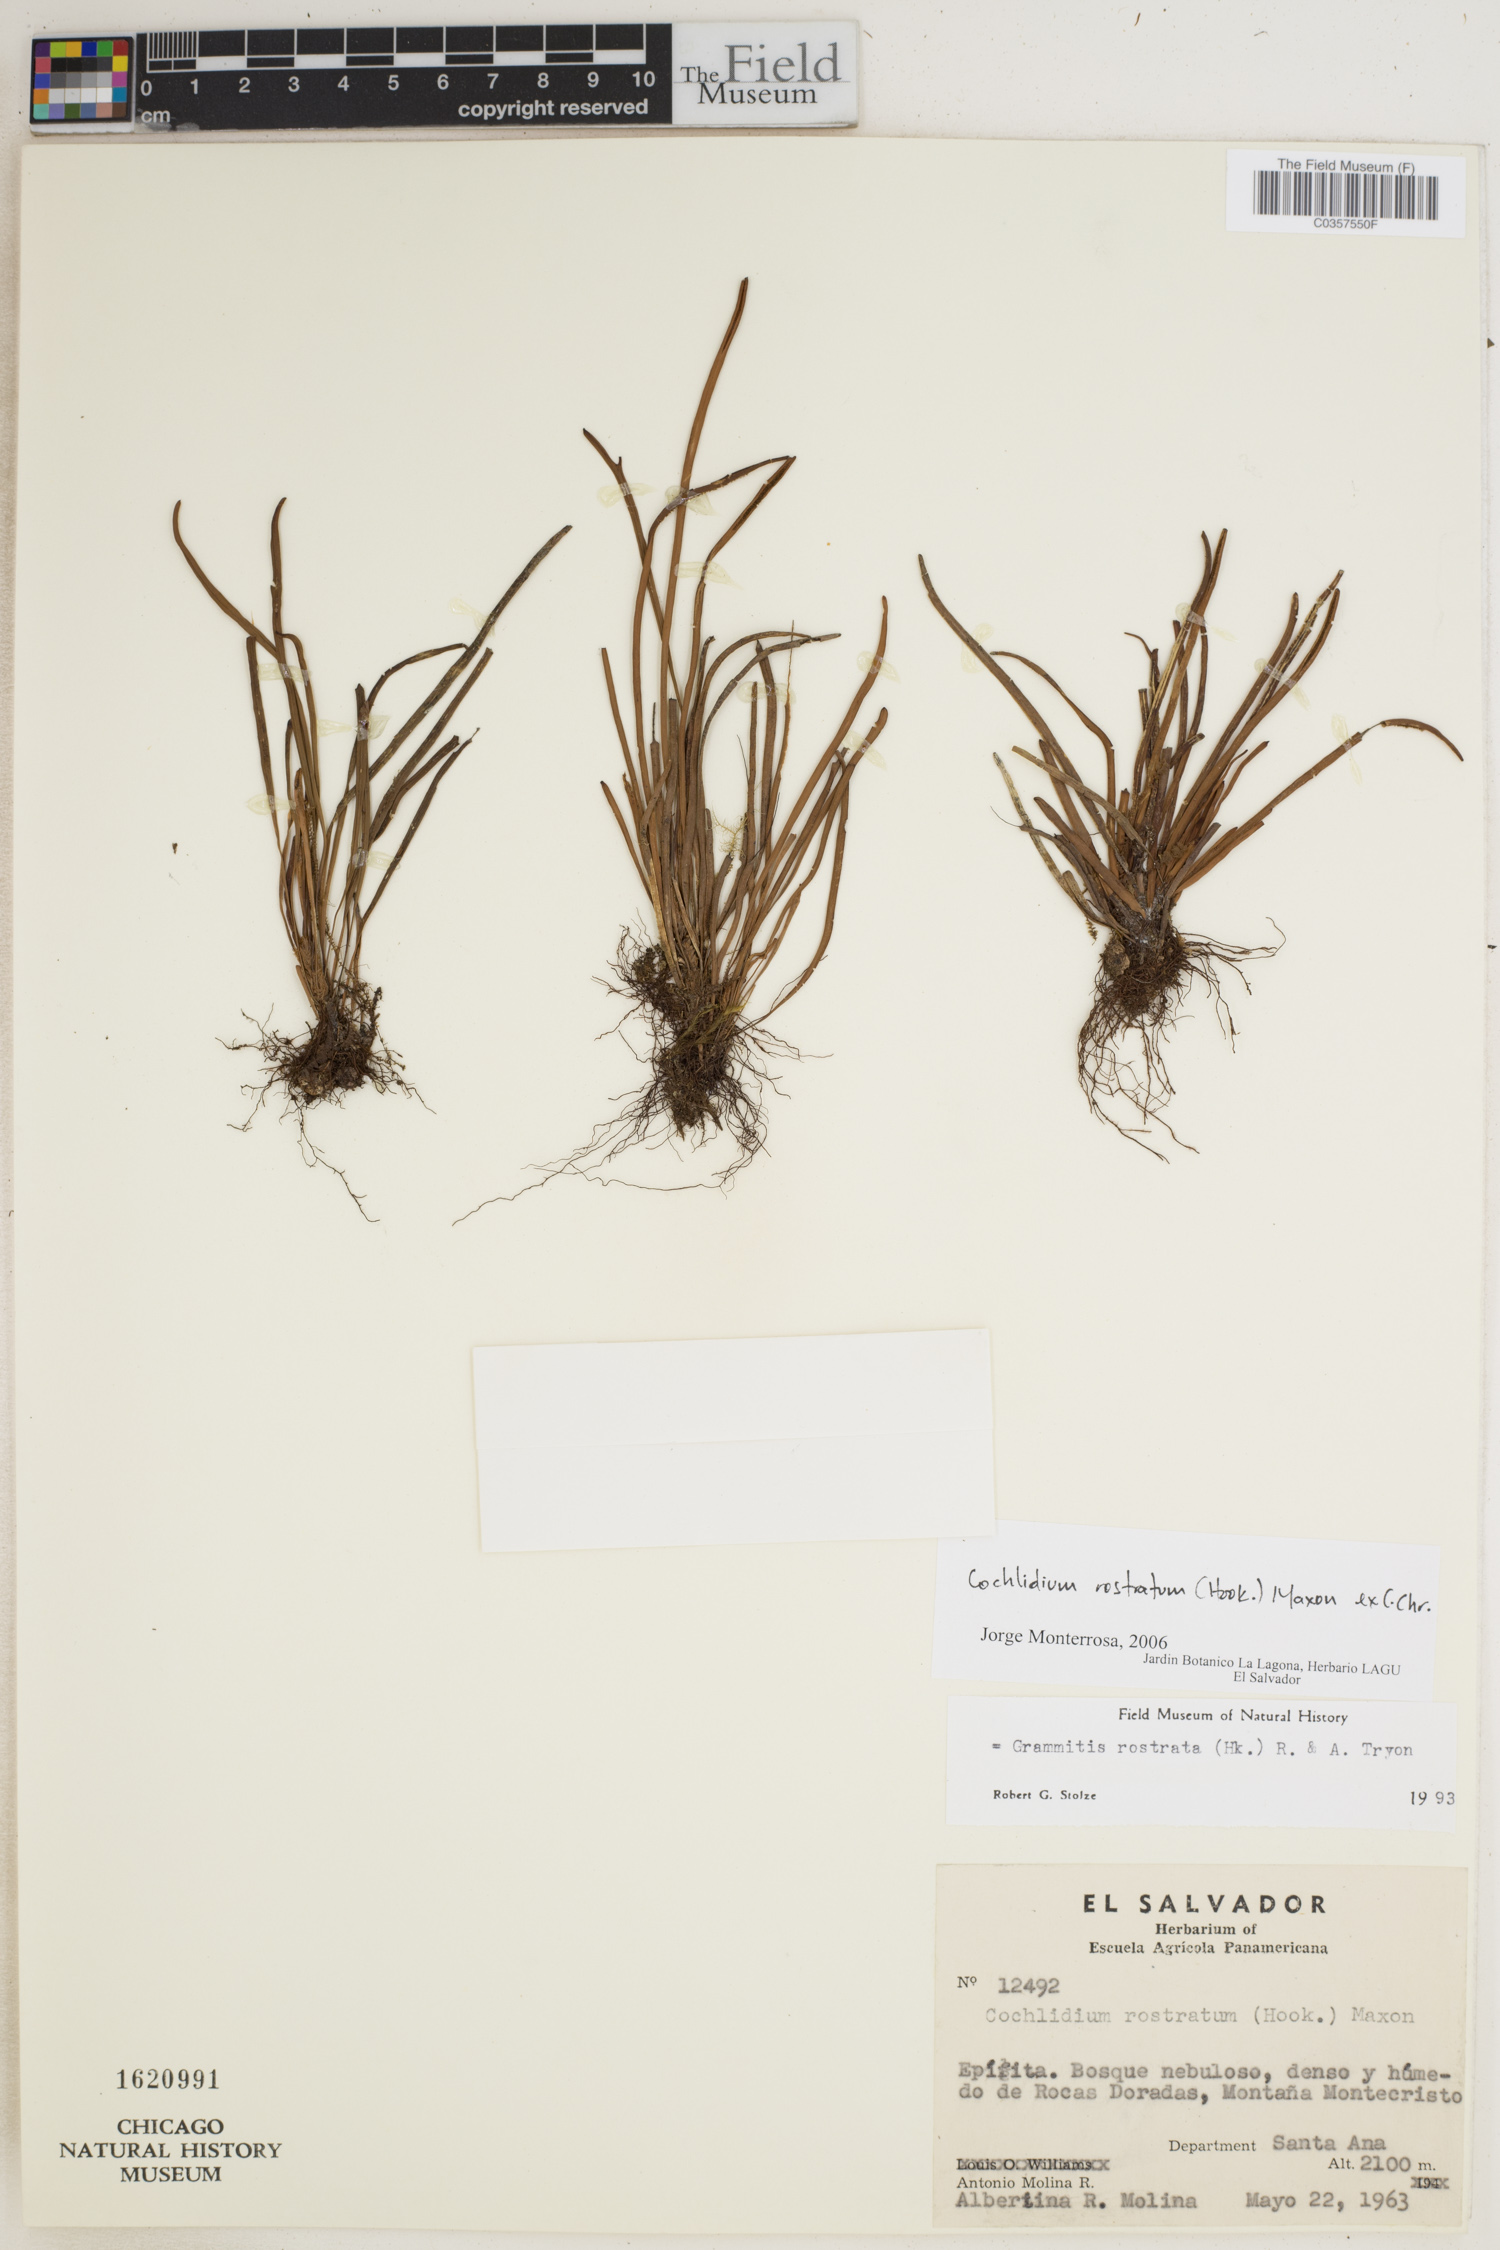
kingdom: Plantae
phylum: Tracheophyta
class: Polypodiopsida
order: Polypodiales
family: Polypodiaceae
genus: Cochlidium
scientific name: Cochlidium rostratum
